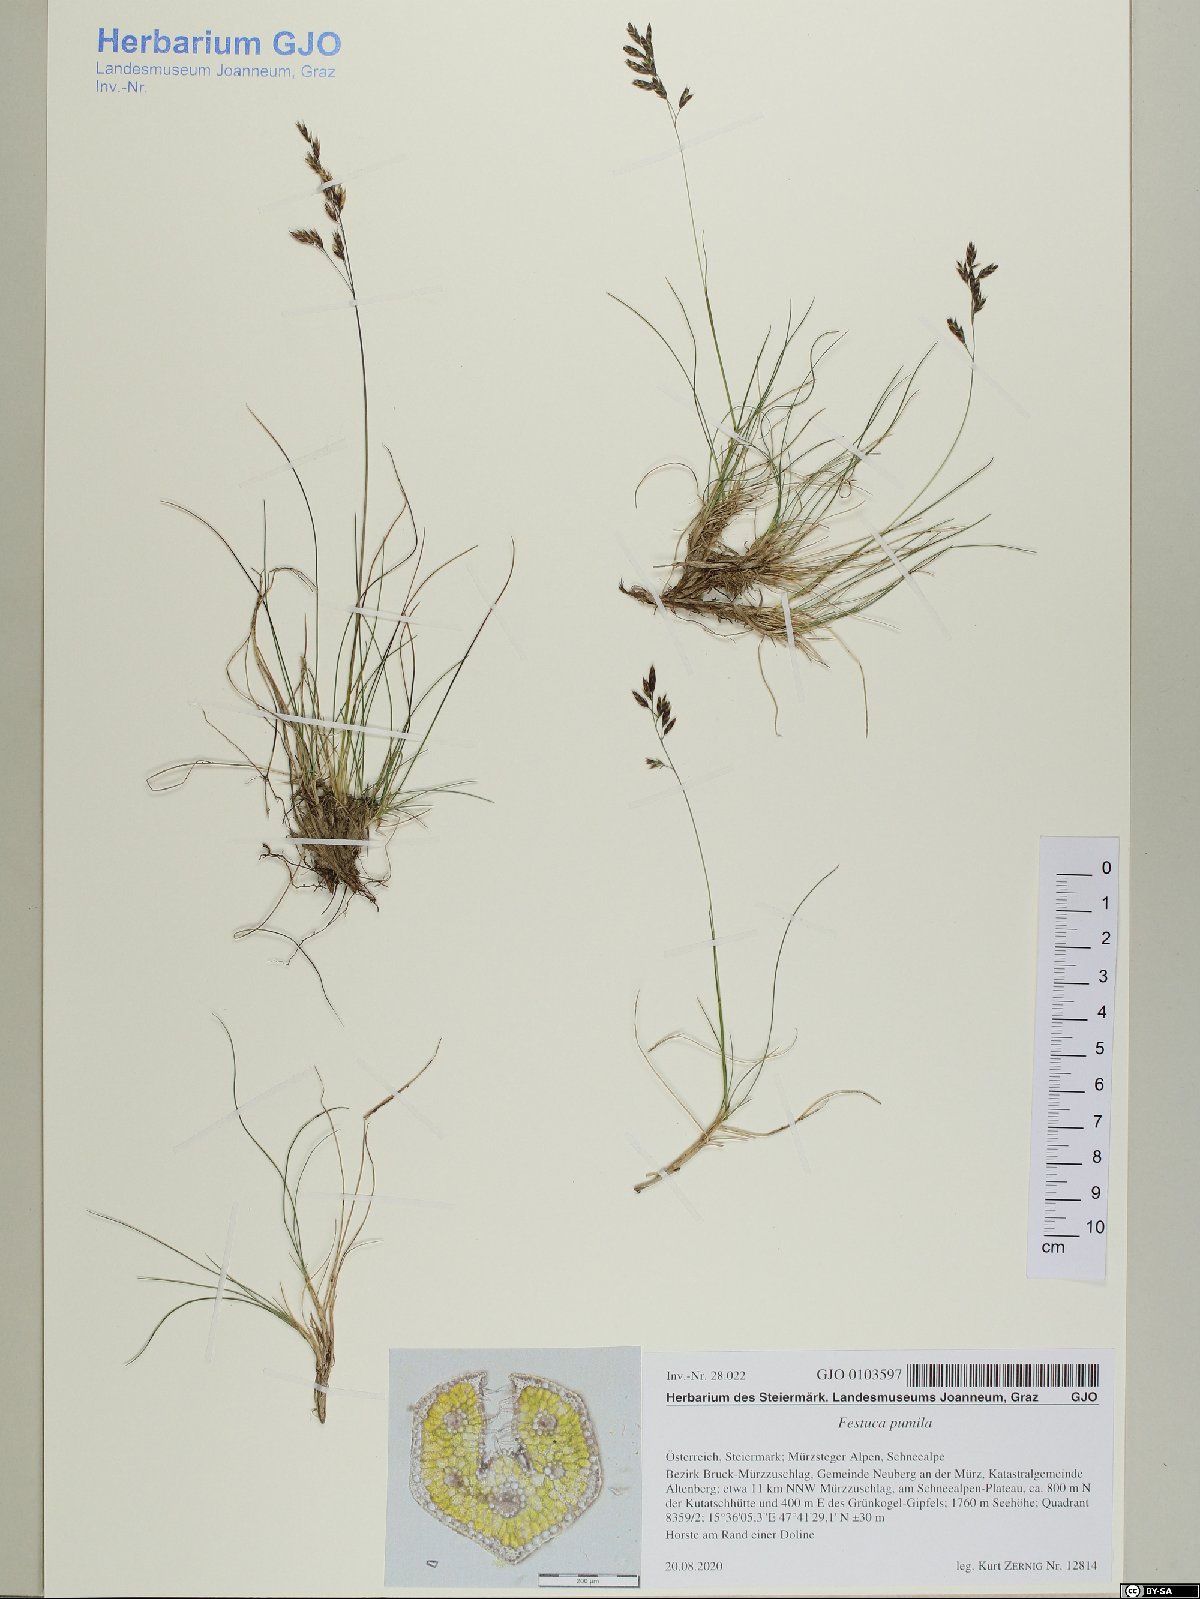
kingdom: Plantae
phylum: Tracheophyta
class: Liliopsida
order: Poales
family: Poaceae
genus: Festuca
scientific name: Festuca quadriflora
